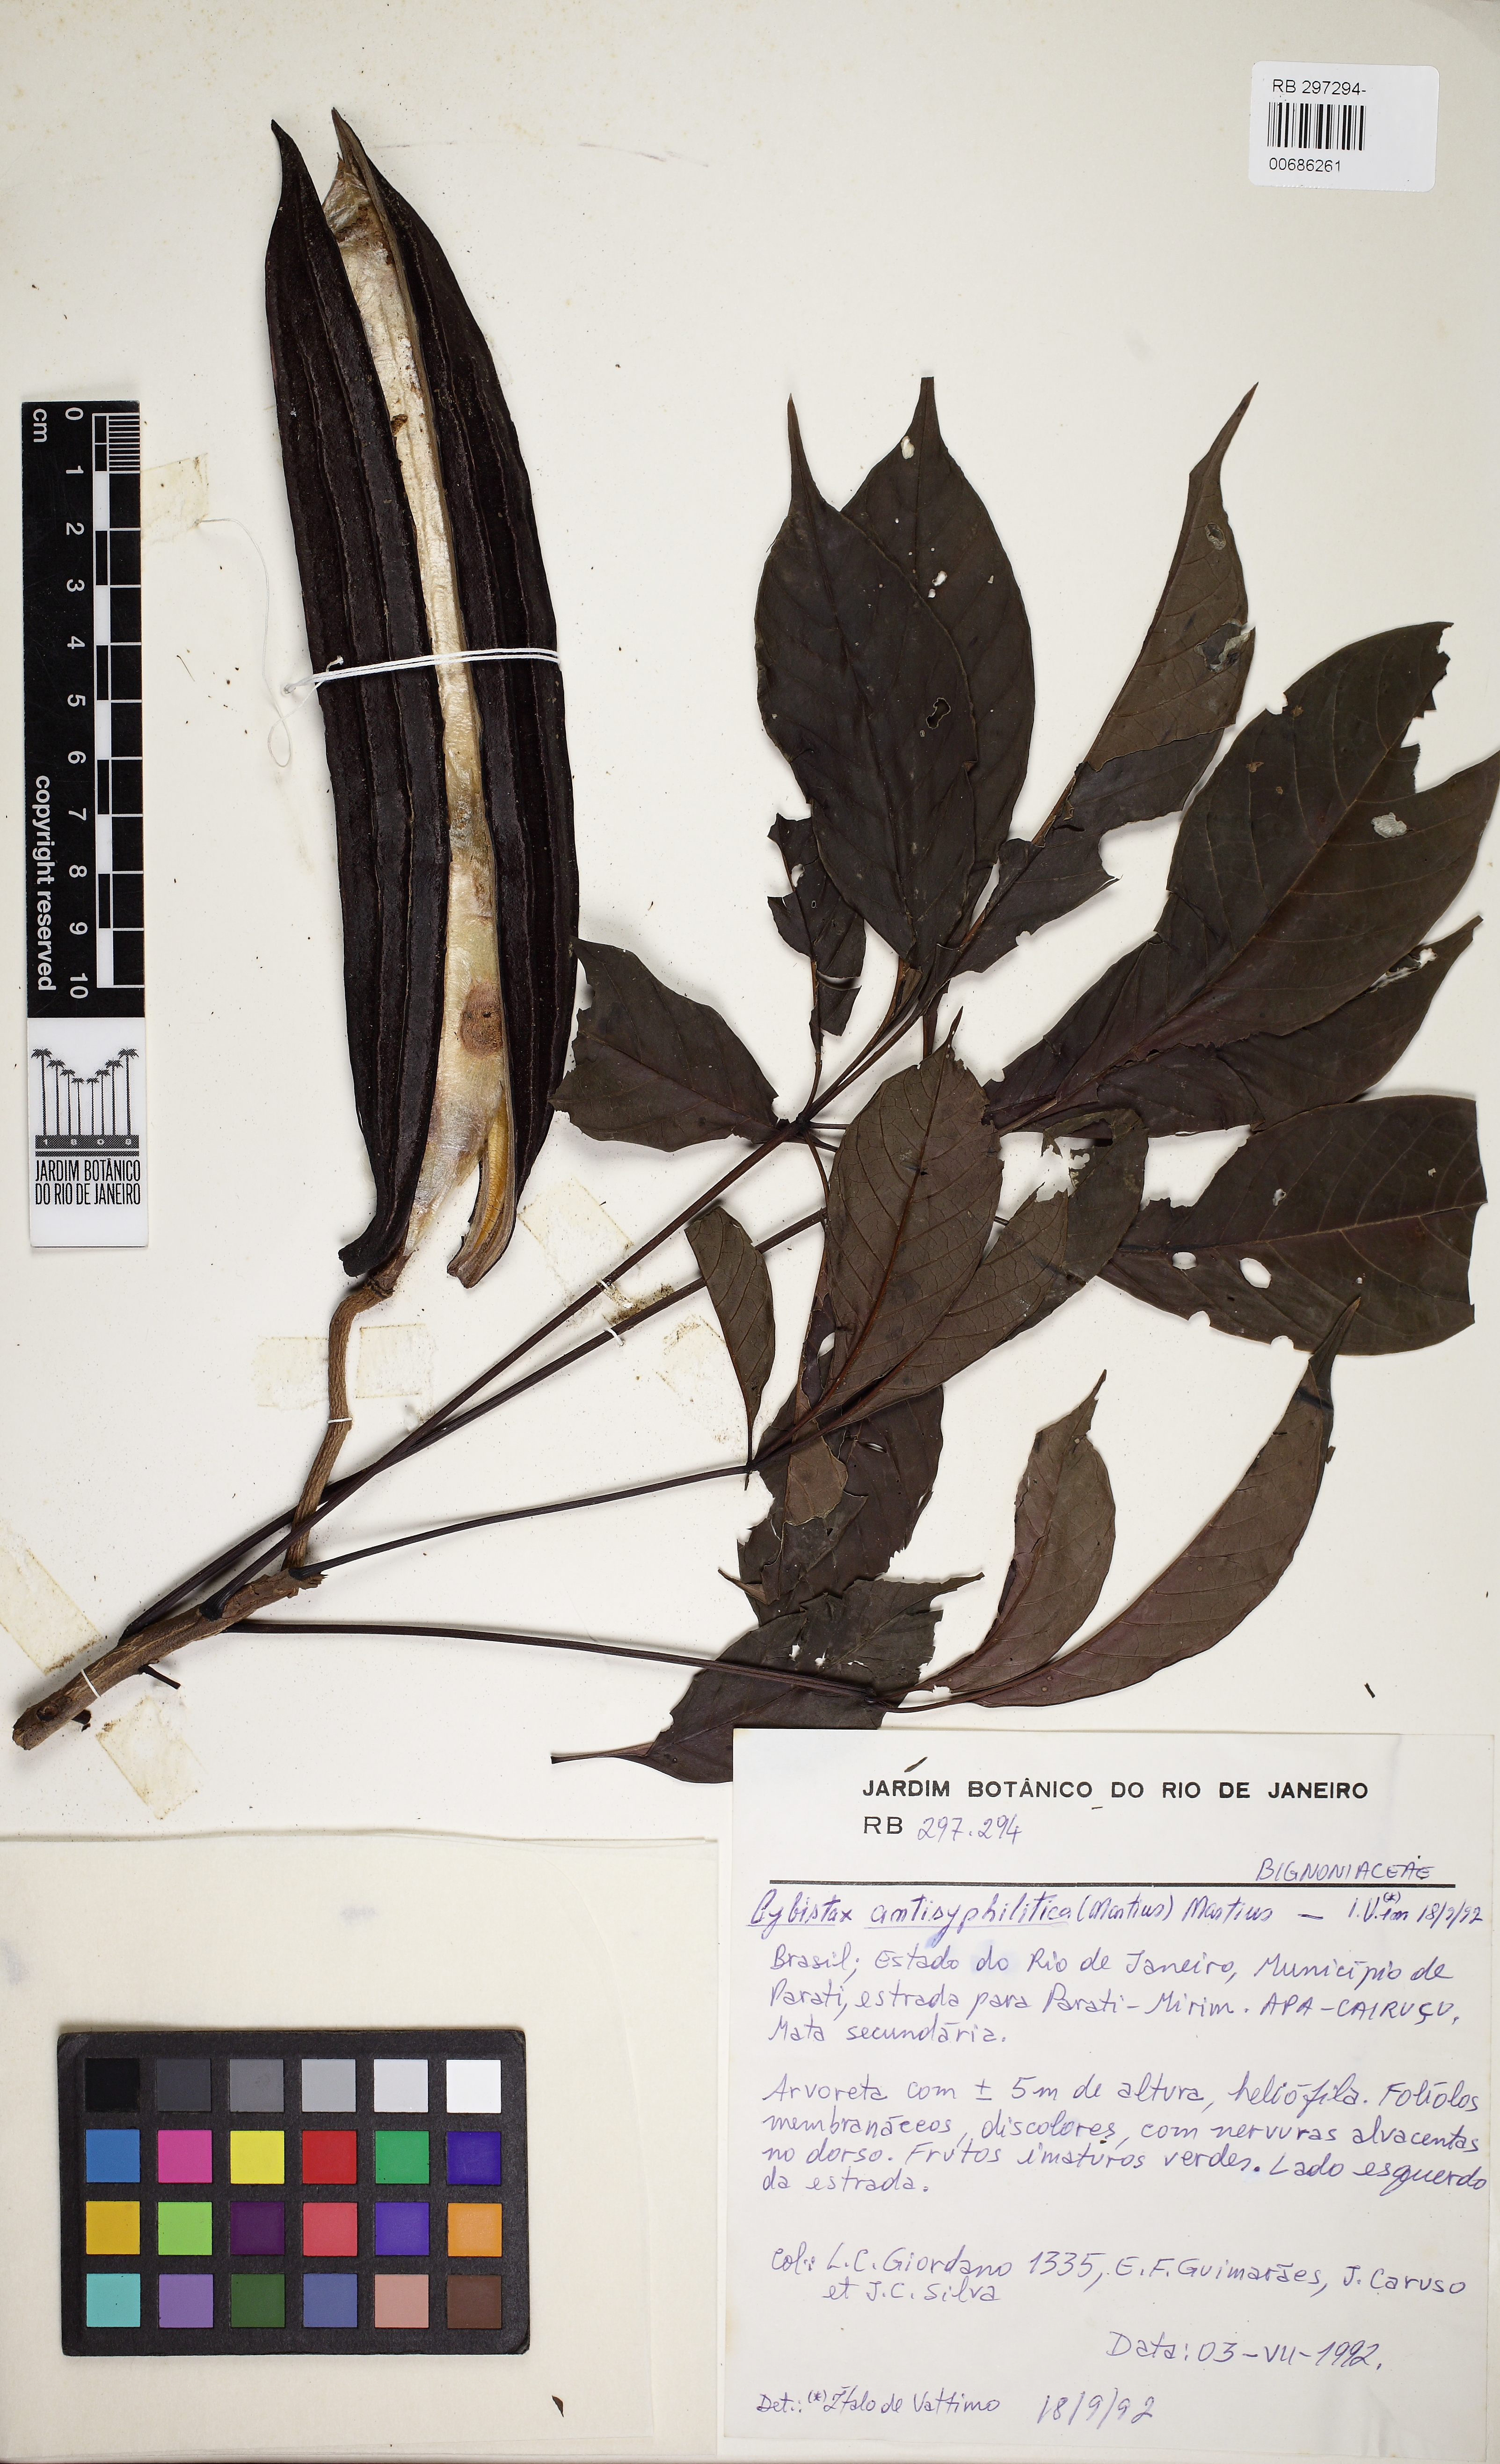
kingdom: Plantae
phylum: Tracheophyta
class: Magnoliopsida
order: Lamiales
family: Bignoniaceae
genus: Cybistax
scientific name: Cybistax antisyphilitica
